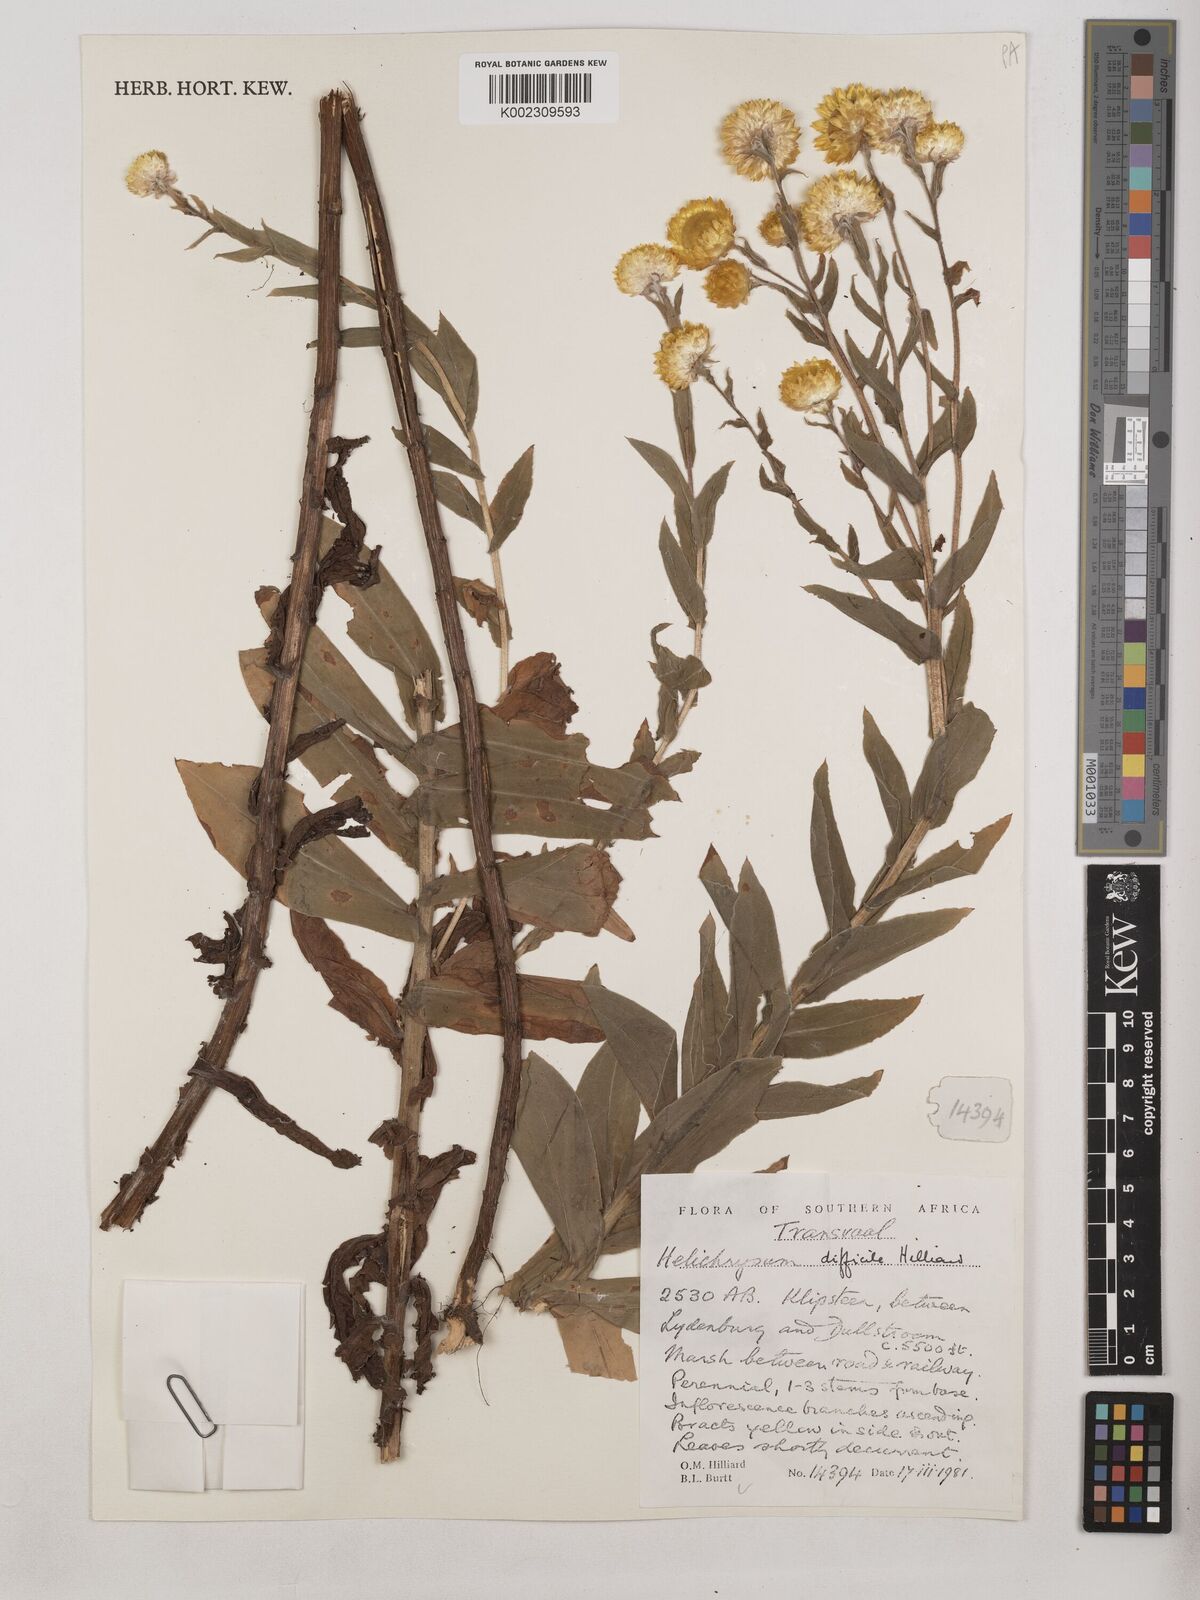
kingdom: Plantae
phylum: Tracheophyta
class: Magnoliopsida
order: Asterales
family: Asteraceae
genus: Helichrysum
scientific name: Helichrysum difficile
